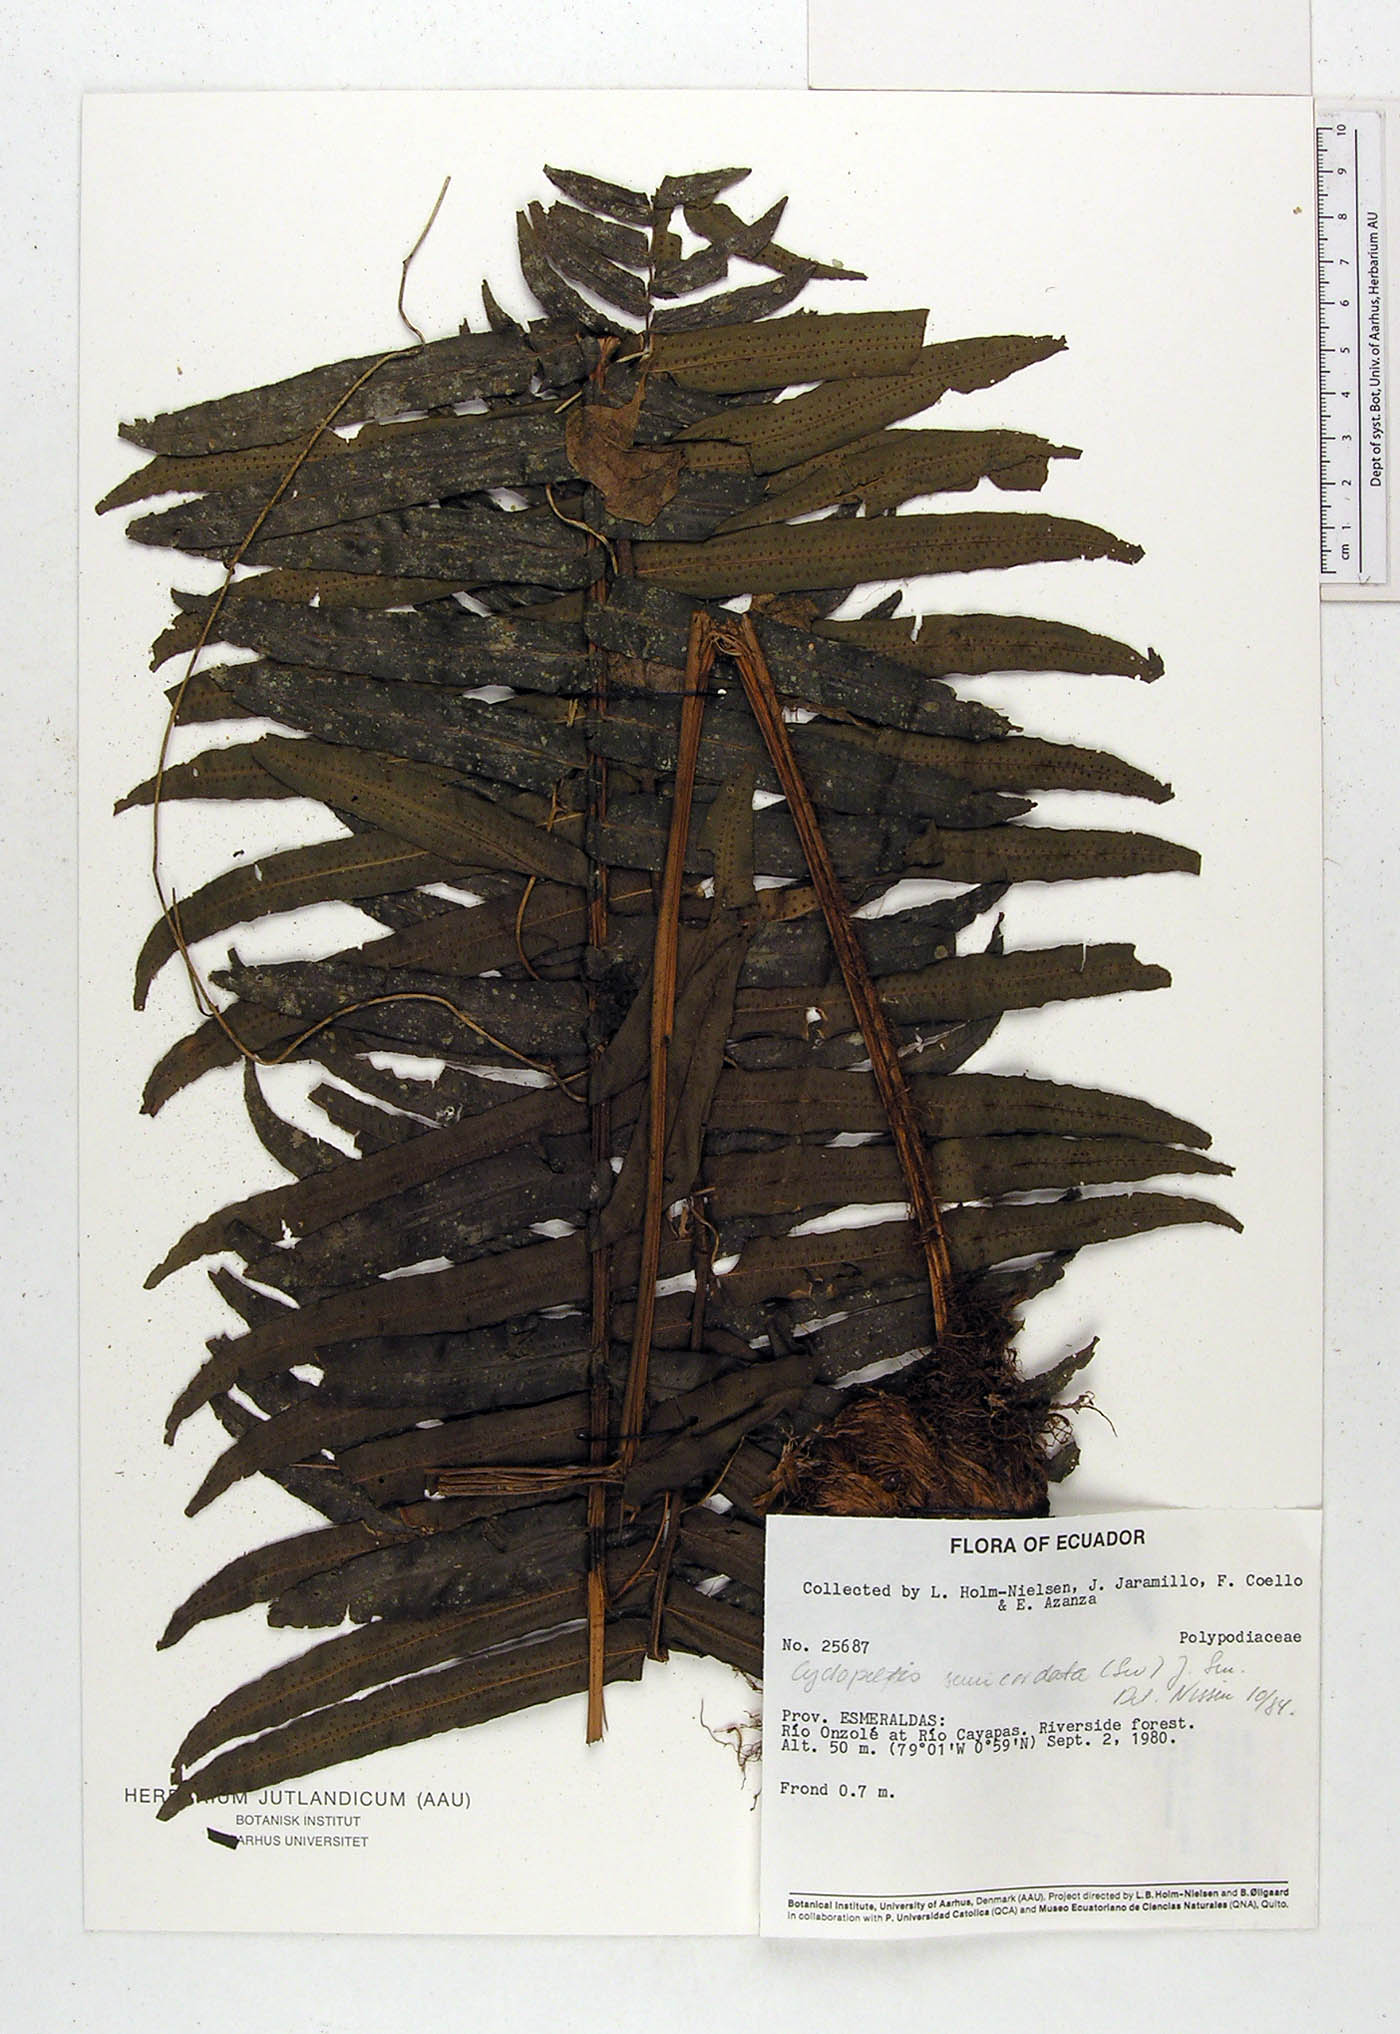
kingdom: Plantae
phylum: Tracheophyta
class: Polypodiopsida
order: Polypodiales
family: Lomariopsidaceae
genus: Cyclopeltis
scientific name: Cyclopeltis semicordata
